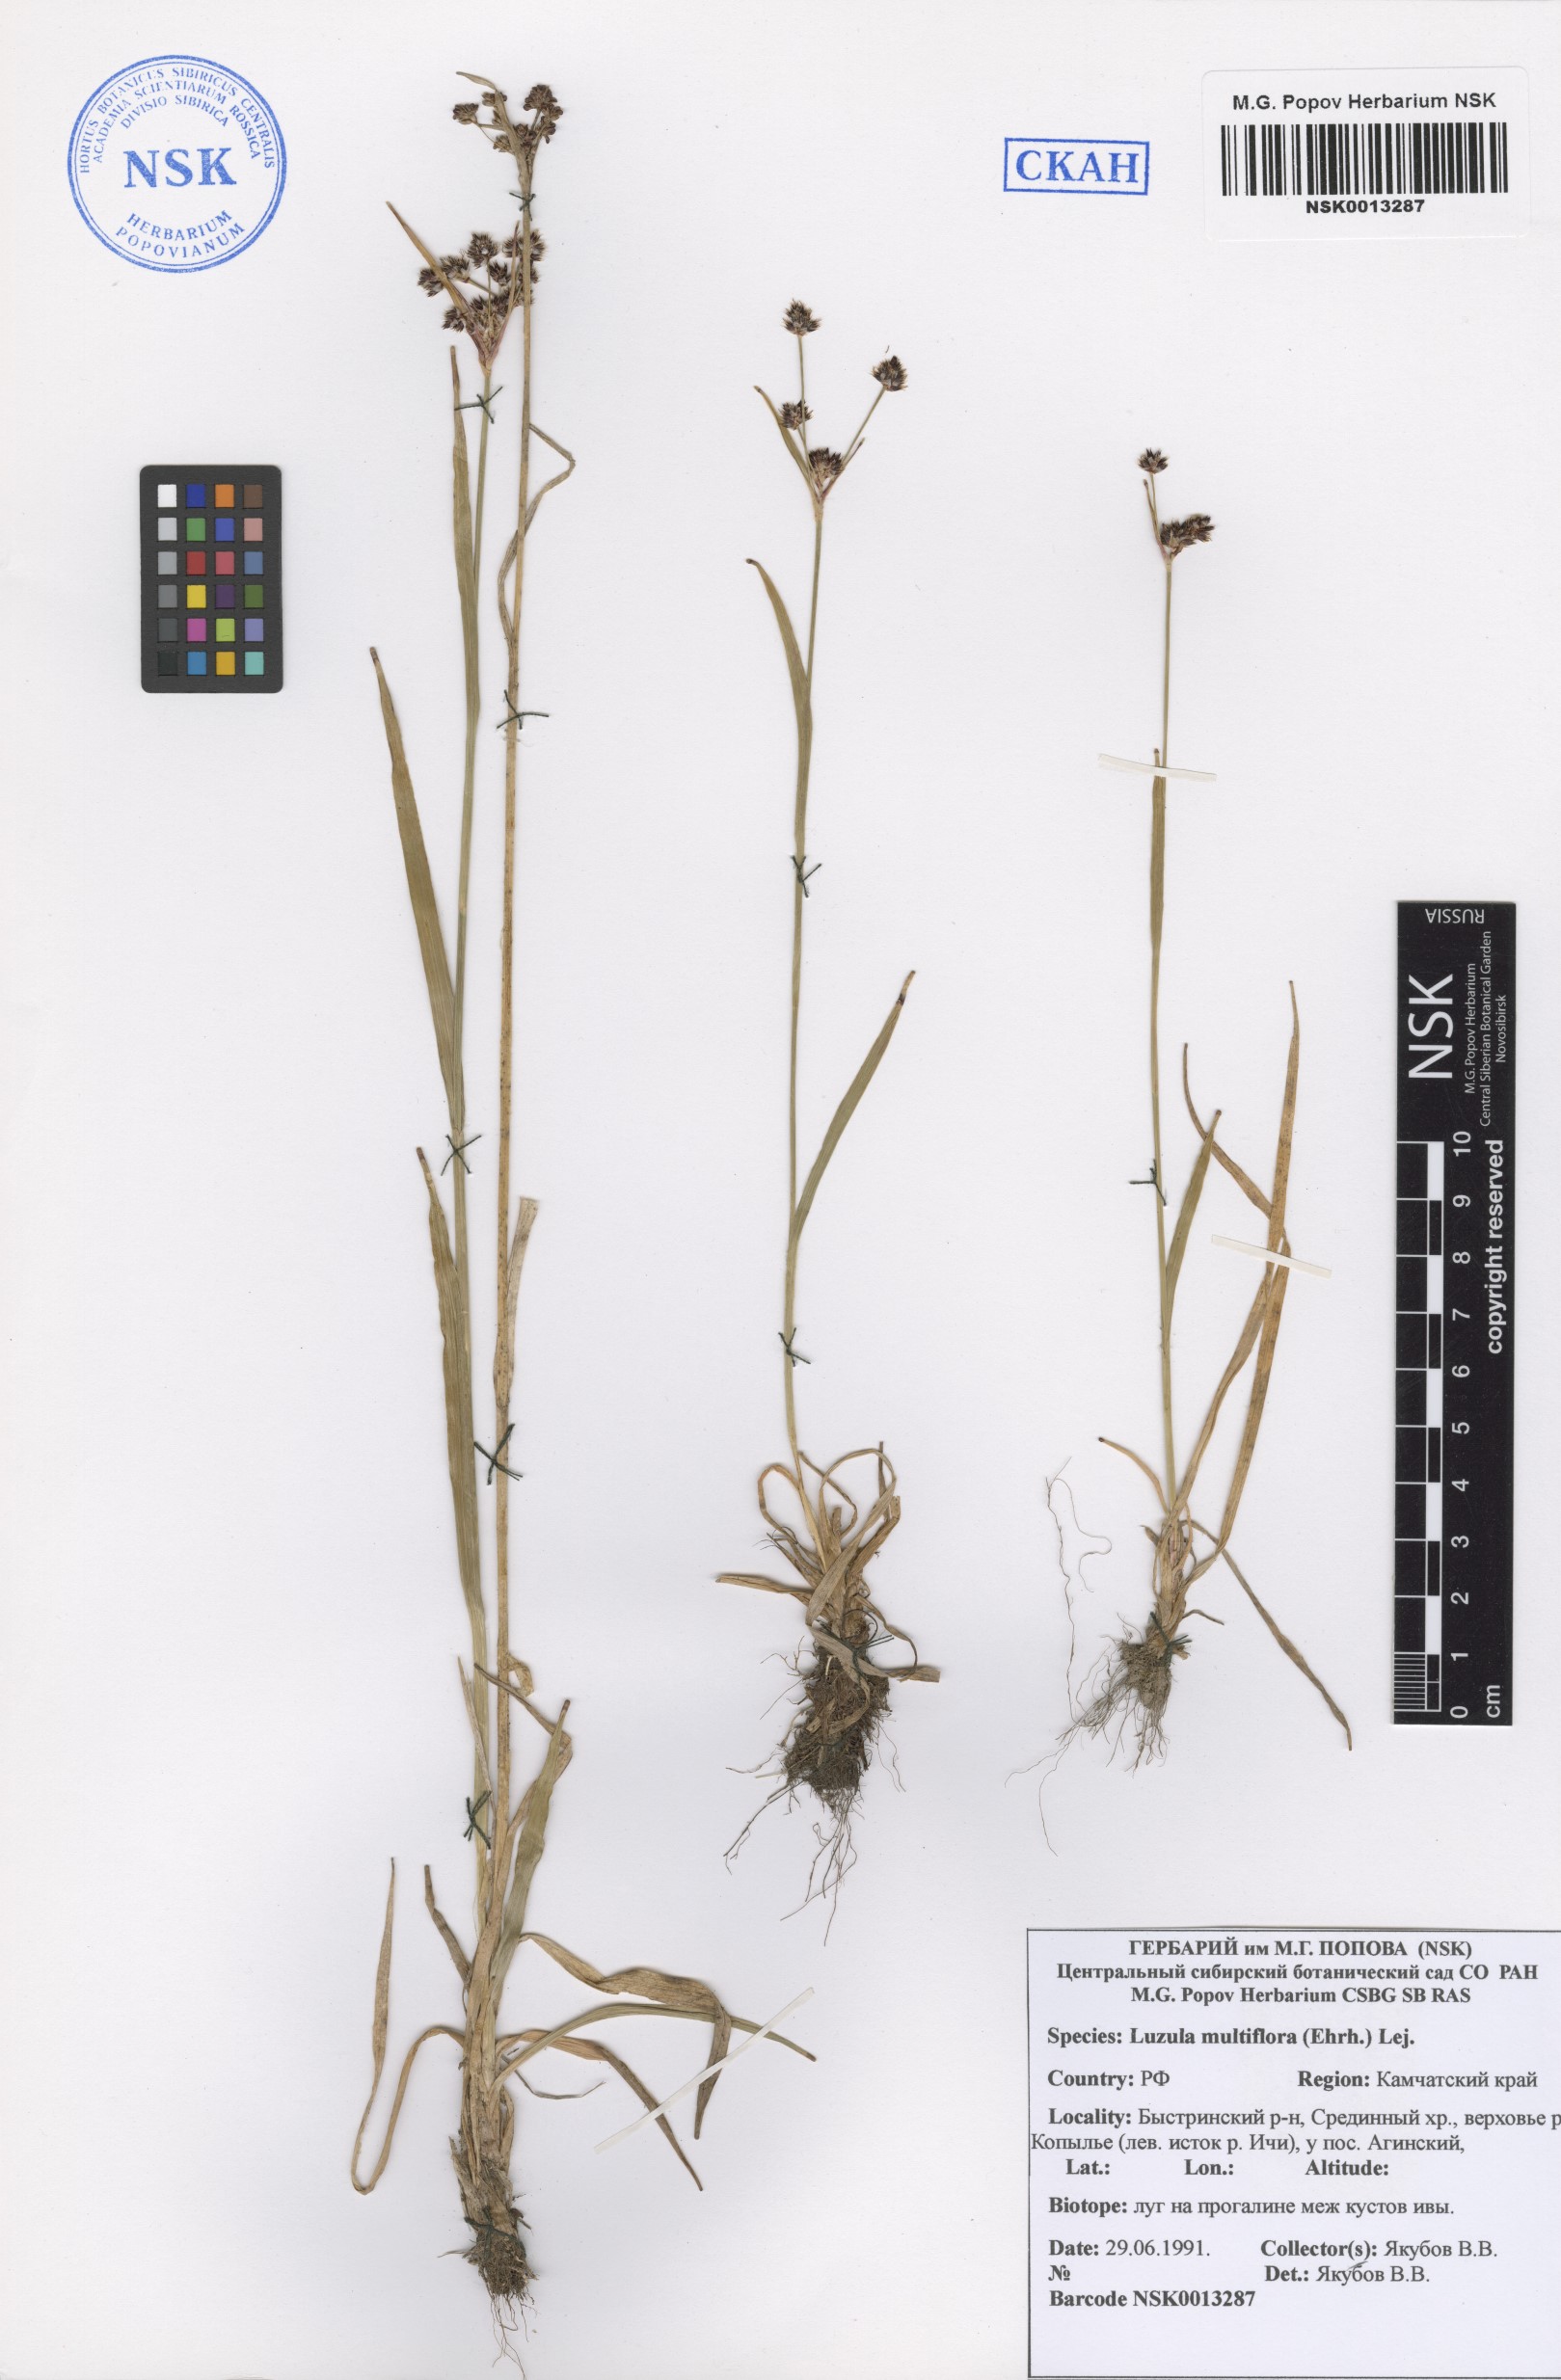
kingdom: Plantae
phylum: Tracheophyta
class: Liliopsida
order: Poales
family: Juncaceae
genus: Luzula
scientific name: Luzula multiflora
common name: Heath wood-rush
